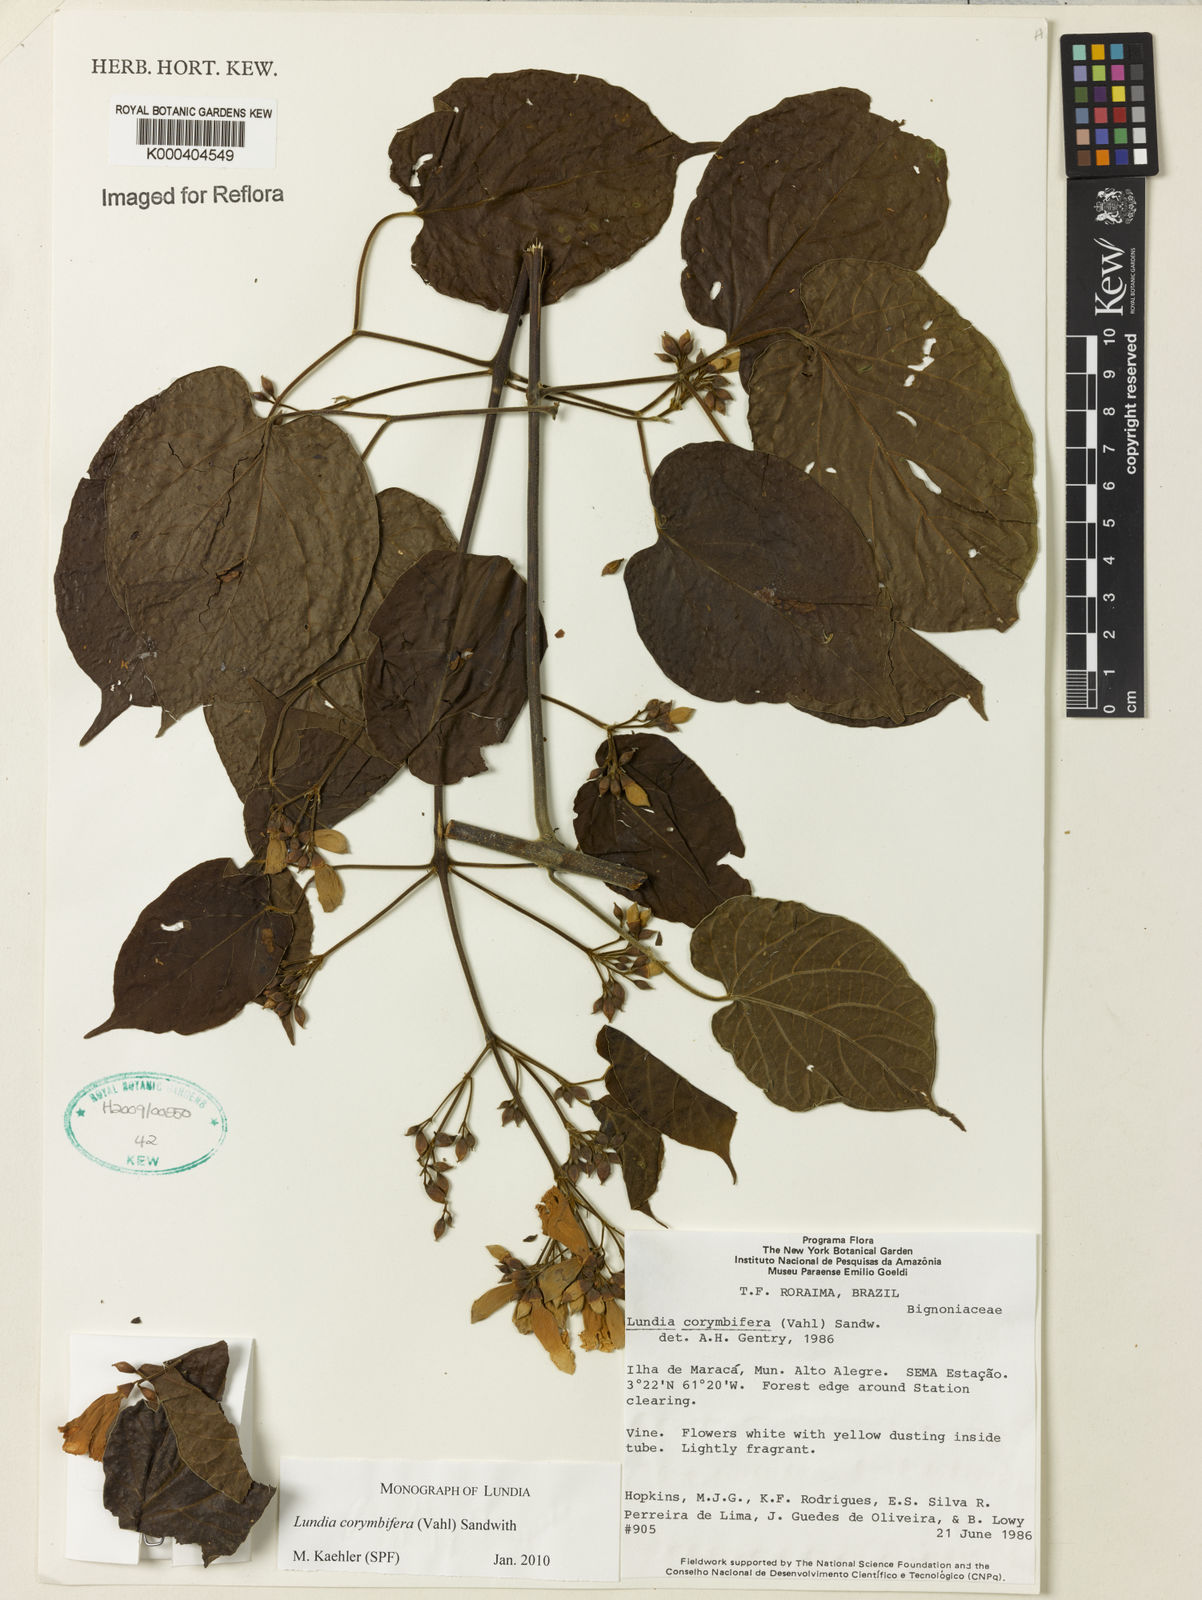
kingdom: Plantae
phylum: Tracheophyta
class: Magnoliopsida
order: Lamiales
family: Bignoniaceae
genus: Lundia
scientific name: Lundia corymbifera
